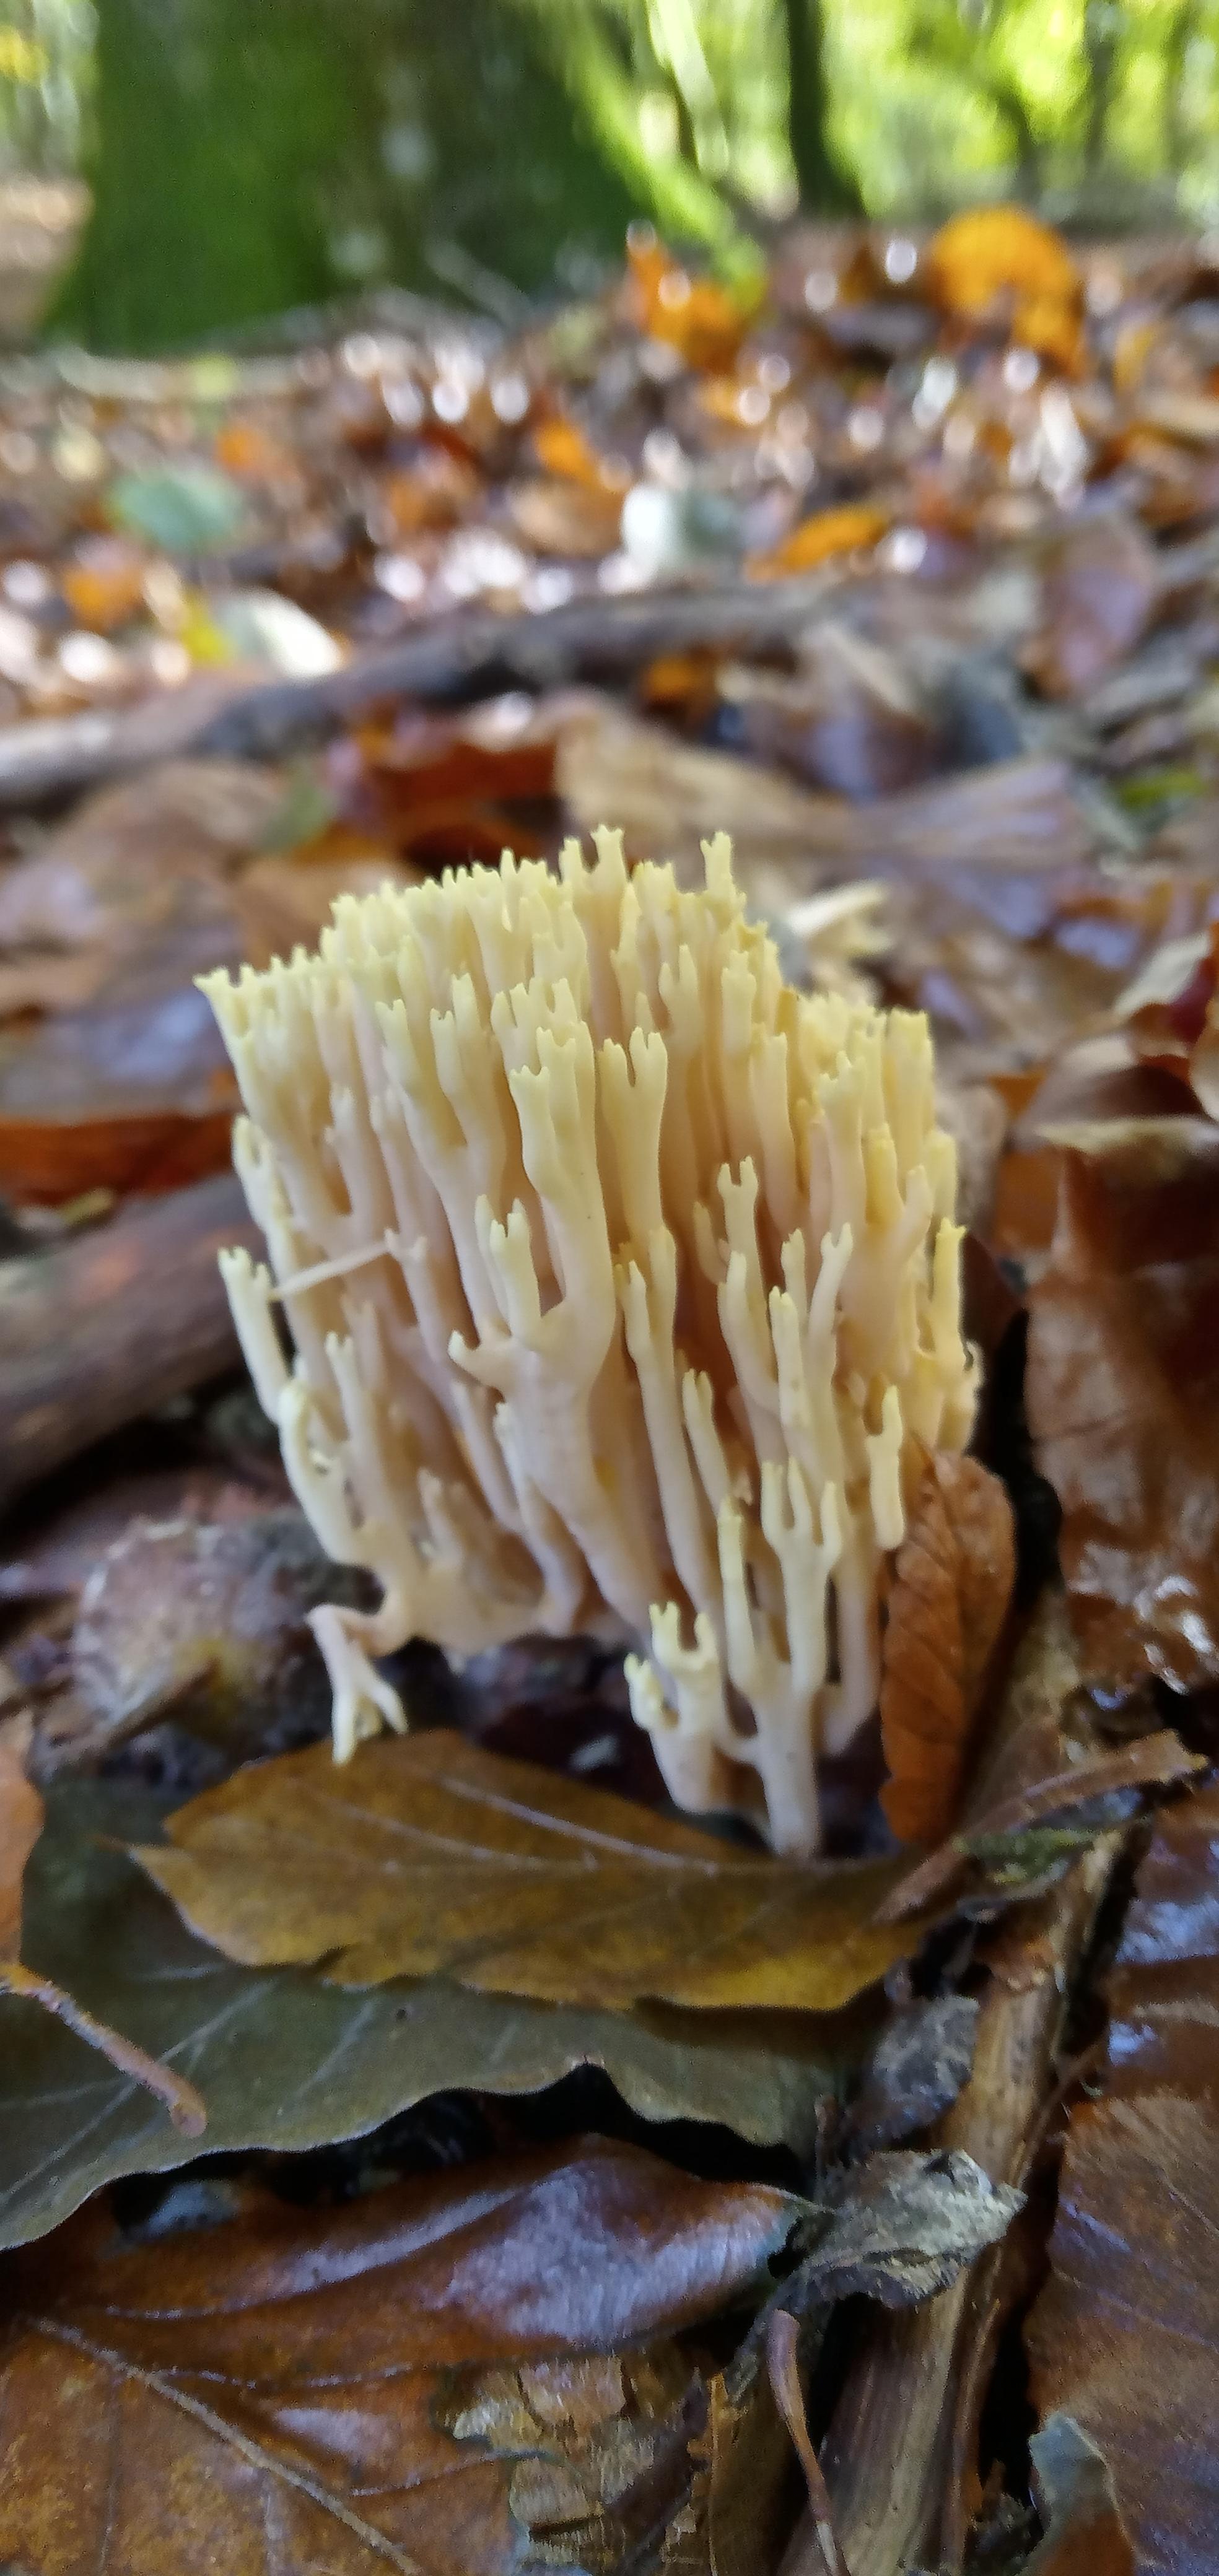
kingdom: Fungi
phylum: Basidiomycota
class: Agaricomycetes
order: Gomphales
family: Gomphaceae
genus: Ramaria
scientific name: Ramaria stricta
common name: rank koralsvamp
